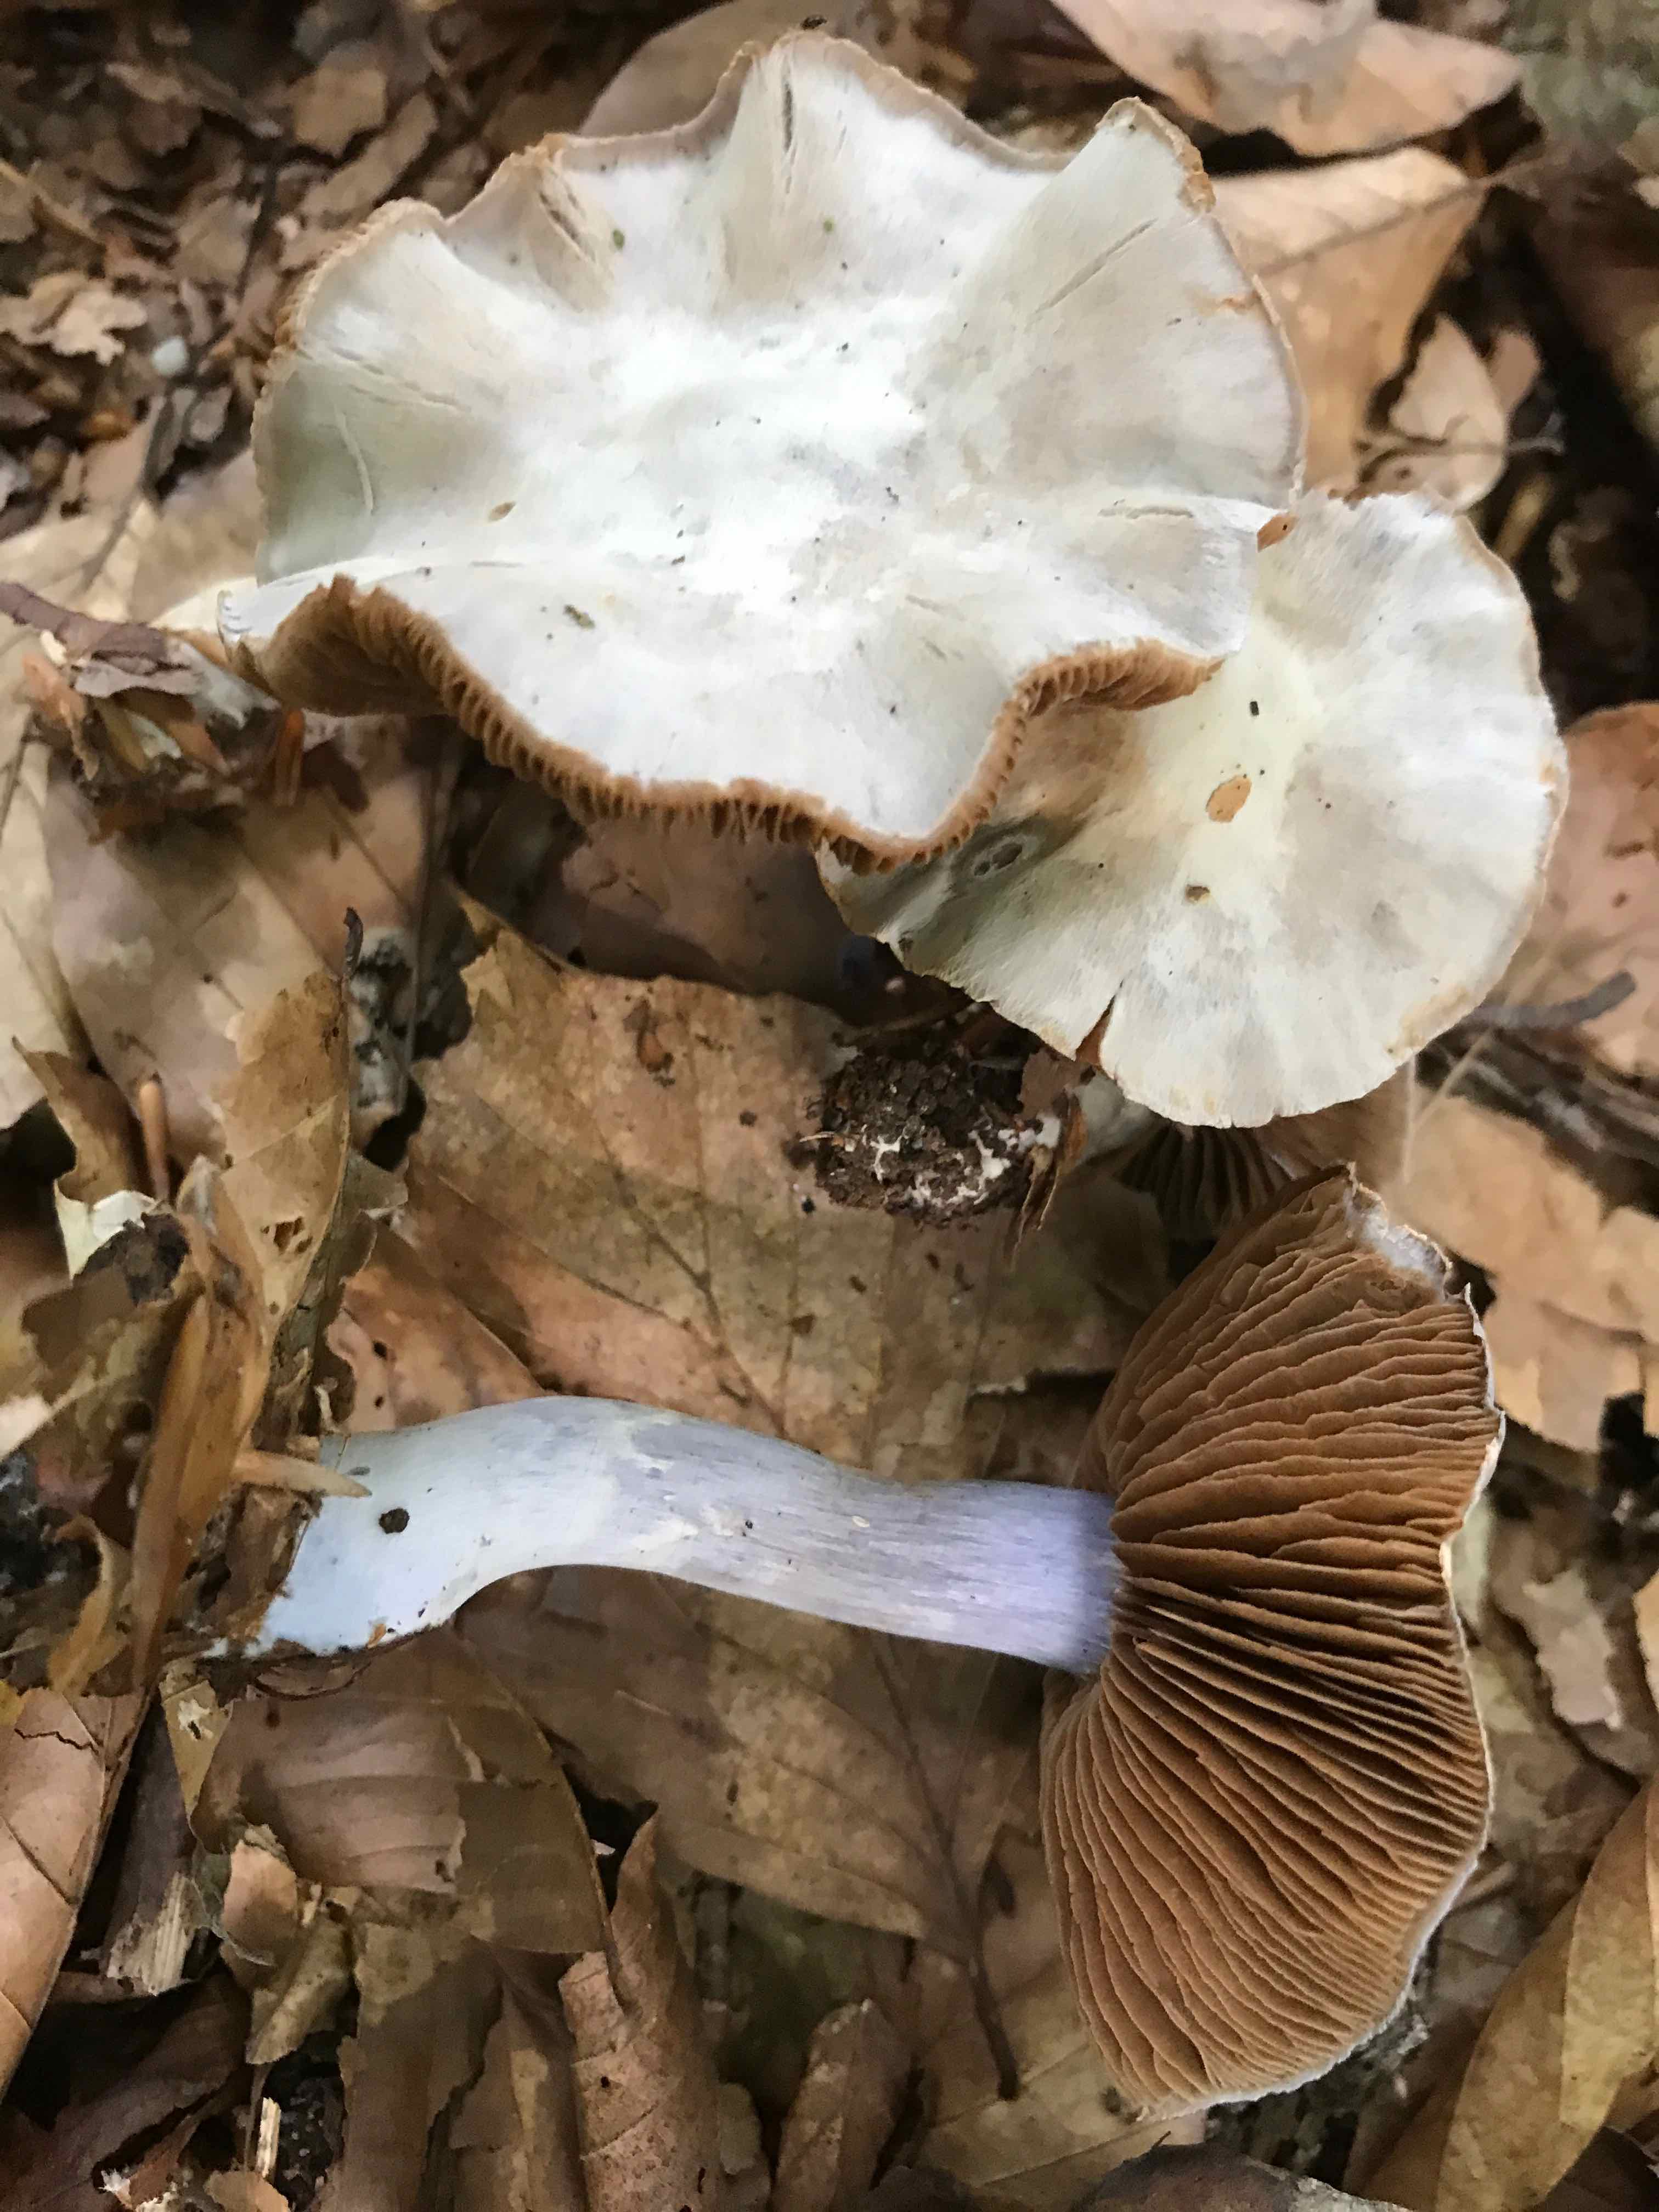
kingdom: Fungi
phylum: Basidiomycota
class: Agaricomycetes
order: Agaricales
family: Cortinariaceae
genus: Cortinarius
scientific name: Cortinarius alboviolaceus
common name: lysviolet slørhat
